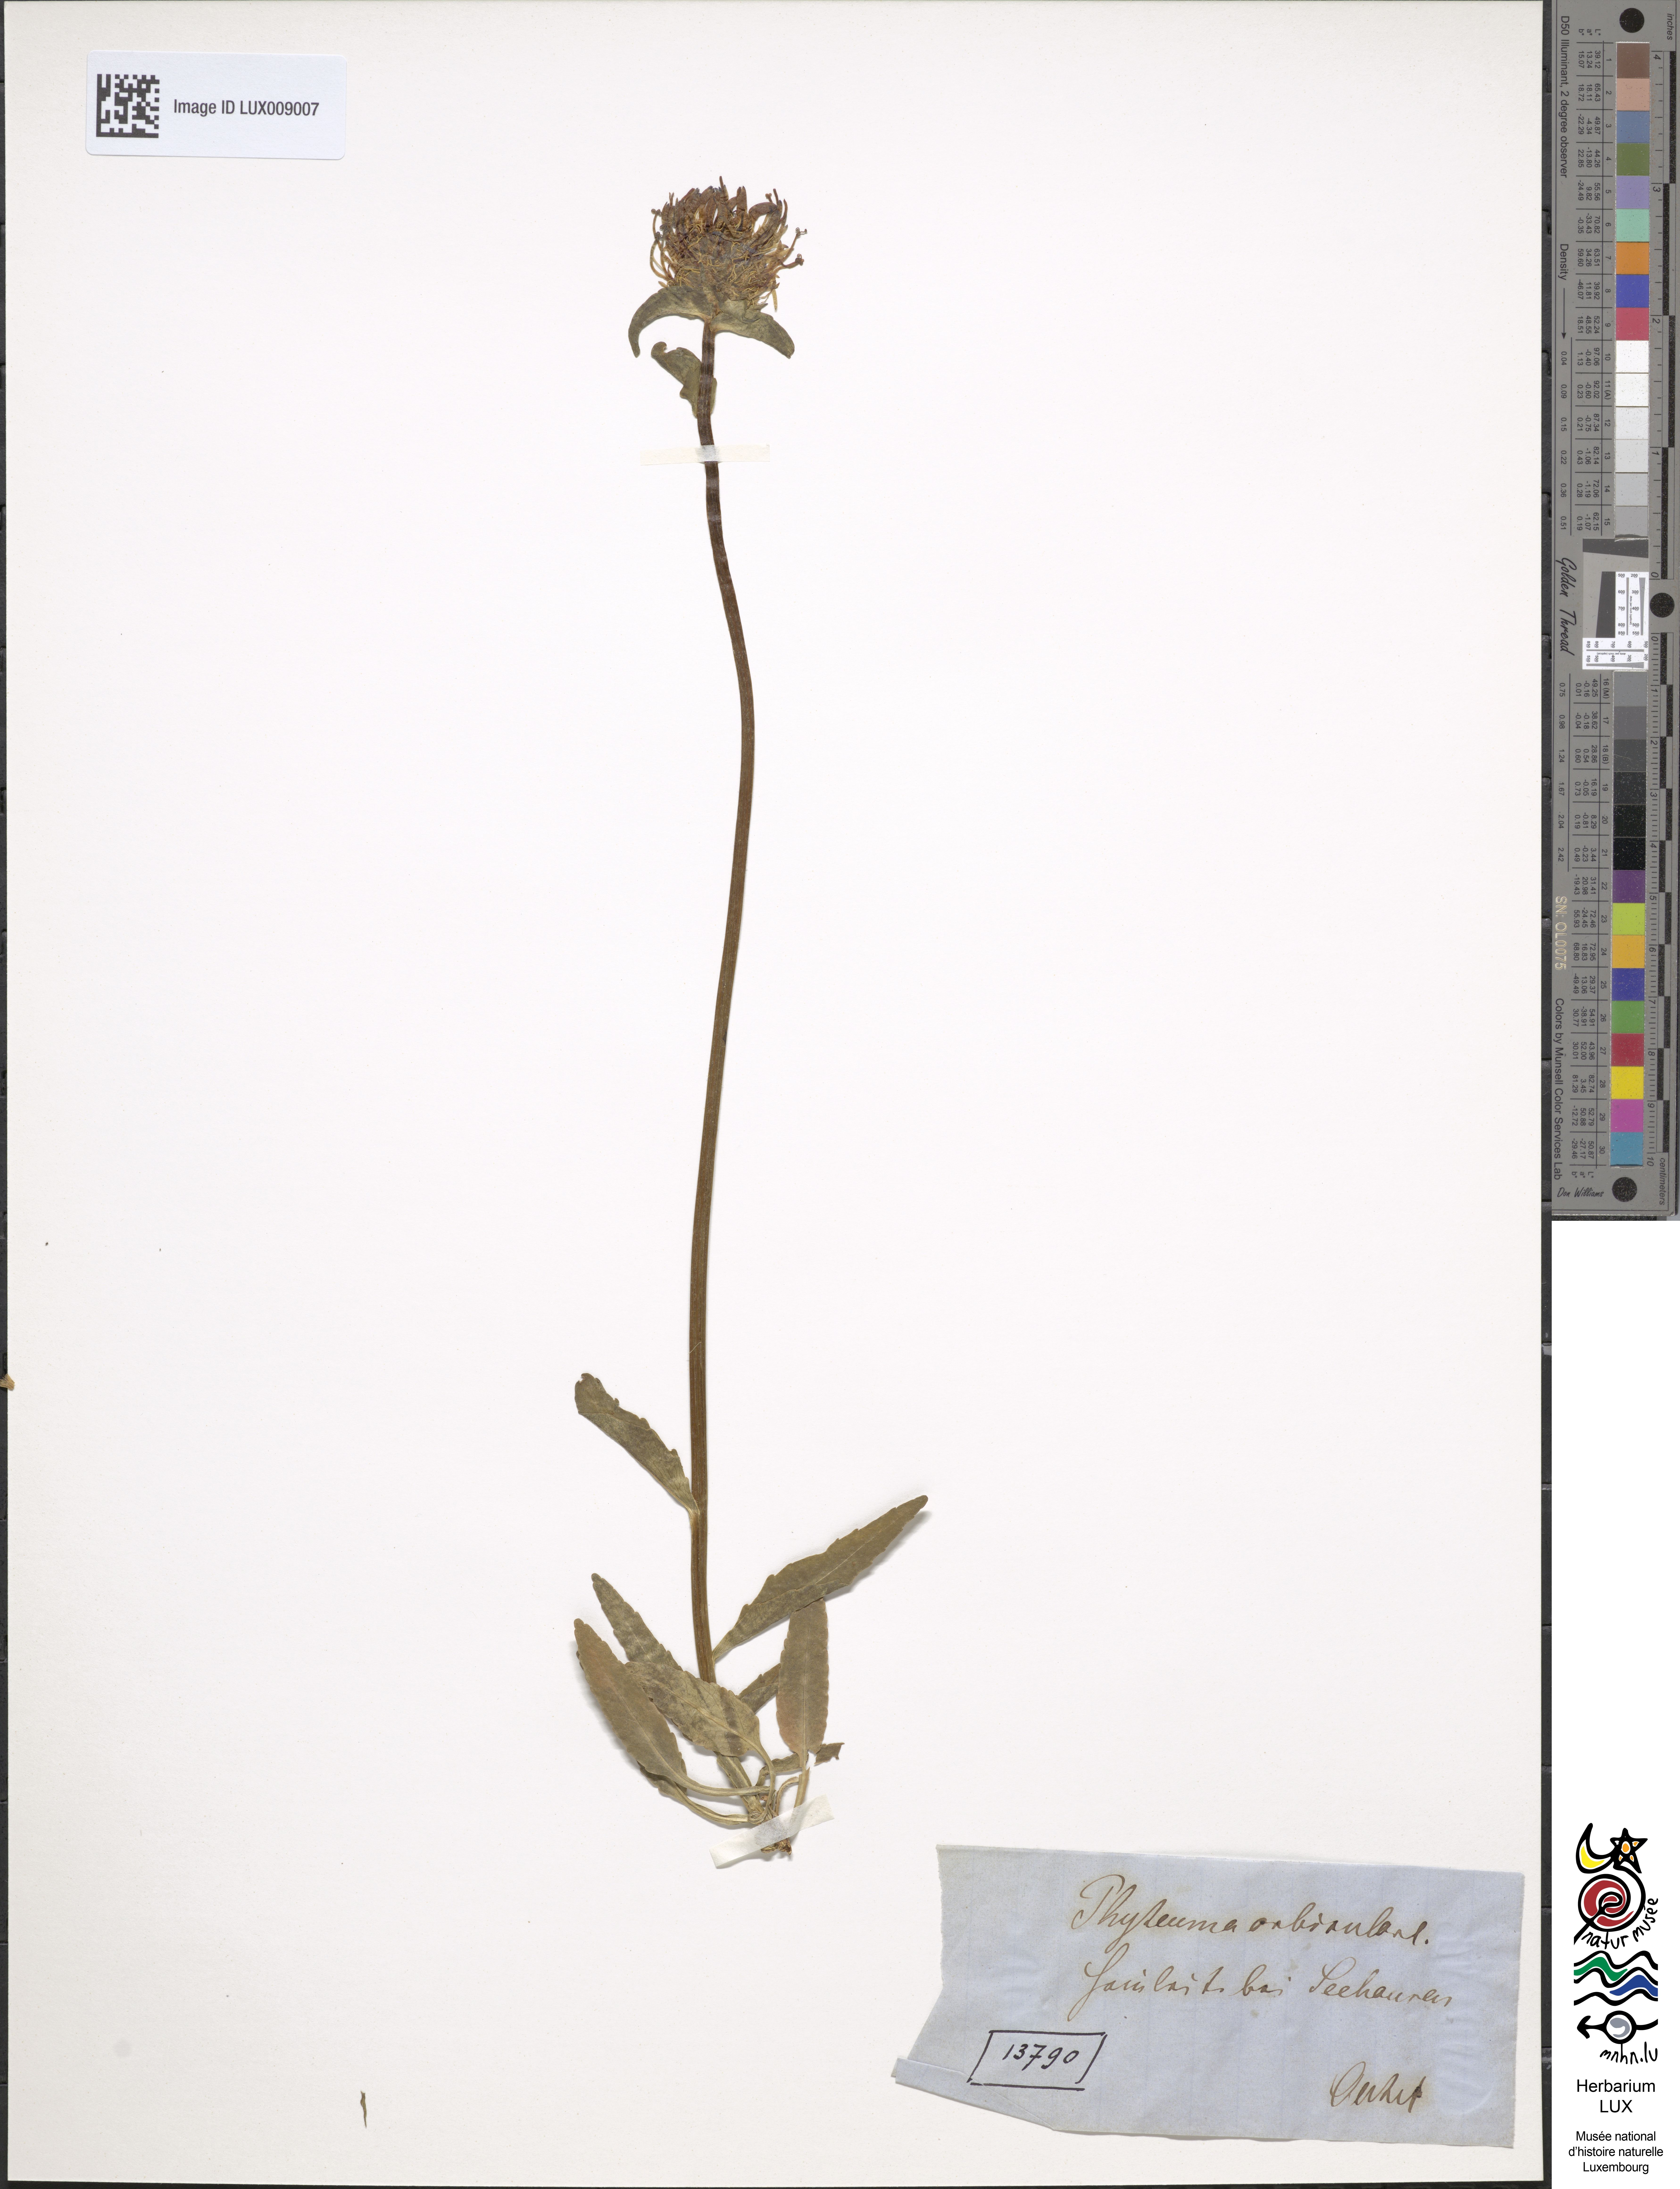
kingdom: Plantae
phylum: Tracheophyta
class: Magnoliopsida
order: Asterales
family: Campanulaceae
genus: Phyteuma
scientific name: Phyteuma orbiculare
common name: Round-headed rampion
